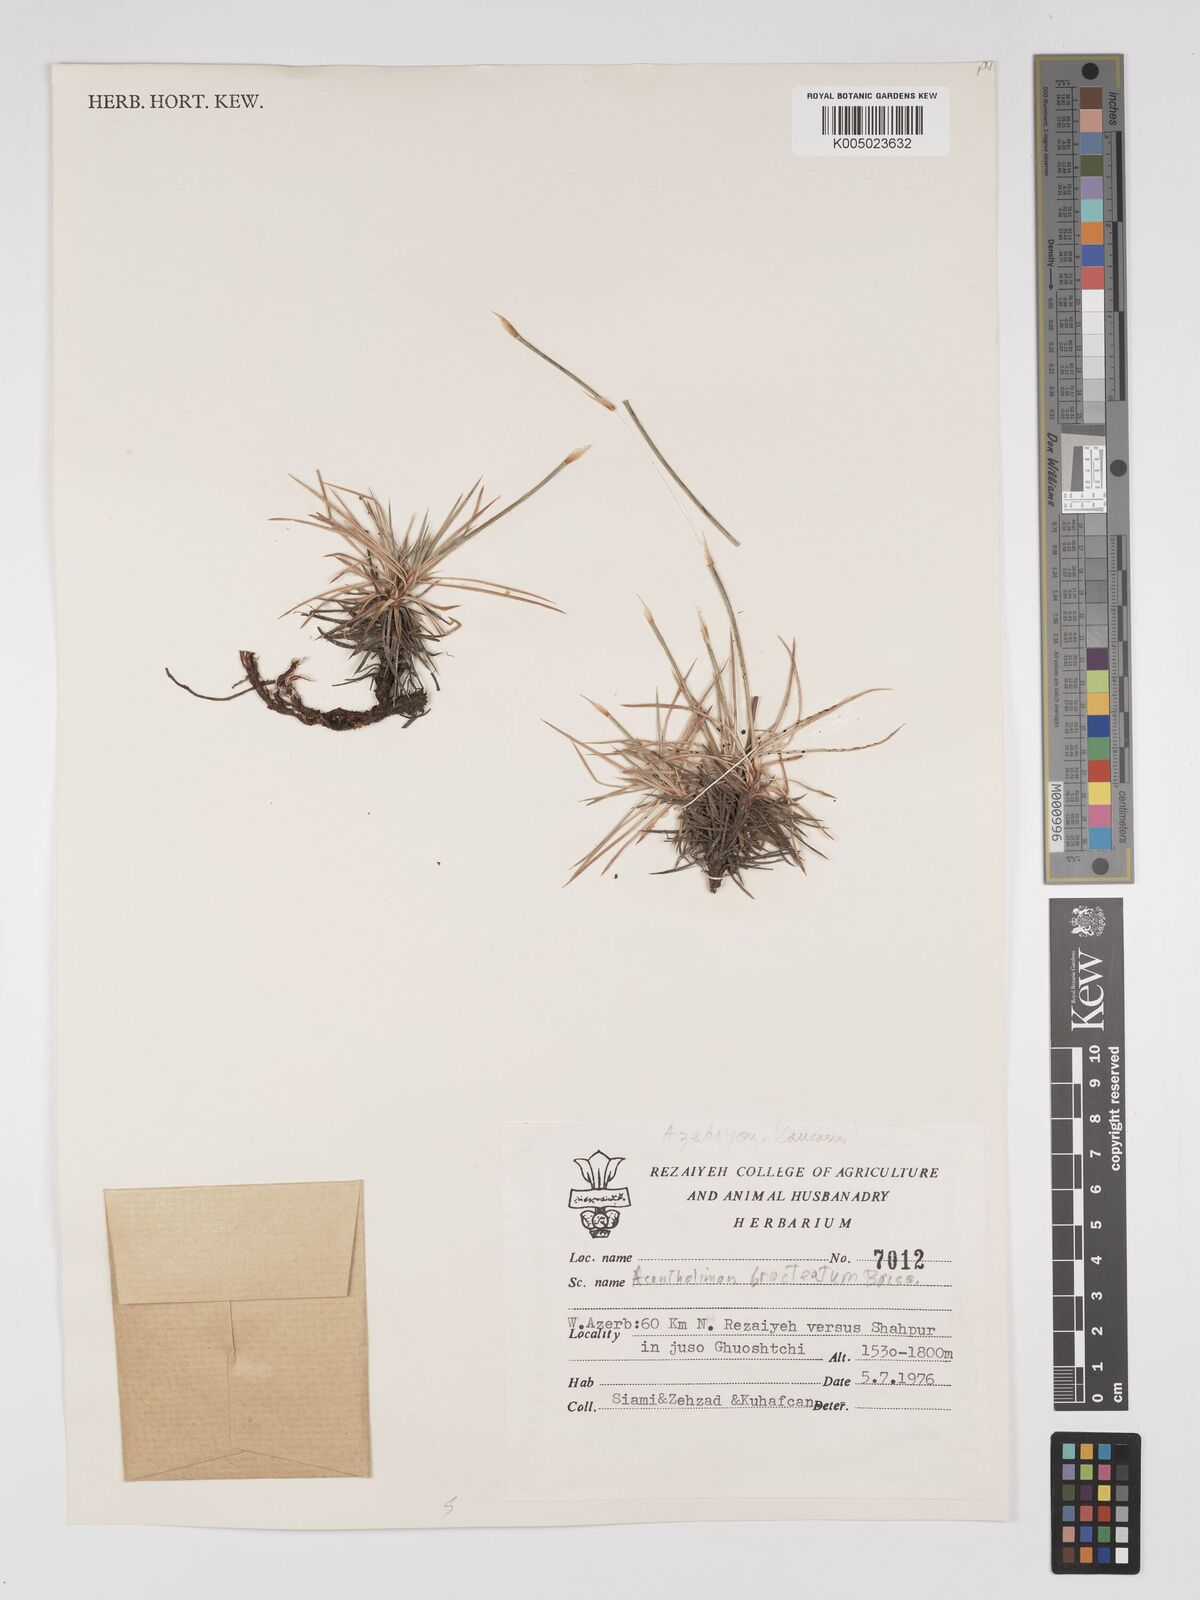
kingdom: Plantae
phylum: Tracheophyta
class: Magnoliopsida
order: Caryophyllales
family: Plumbaginaceae
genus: Acantholimon
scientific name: Acantholimon bracteatum
